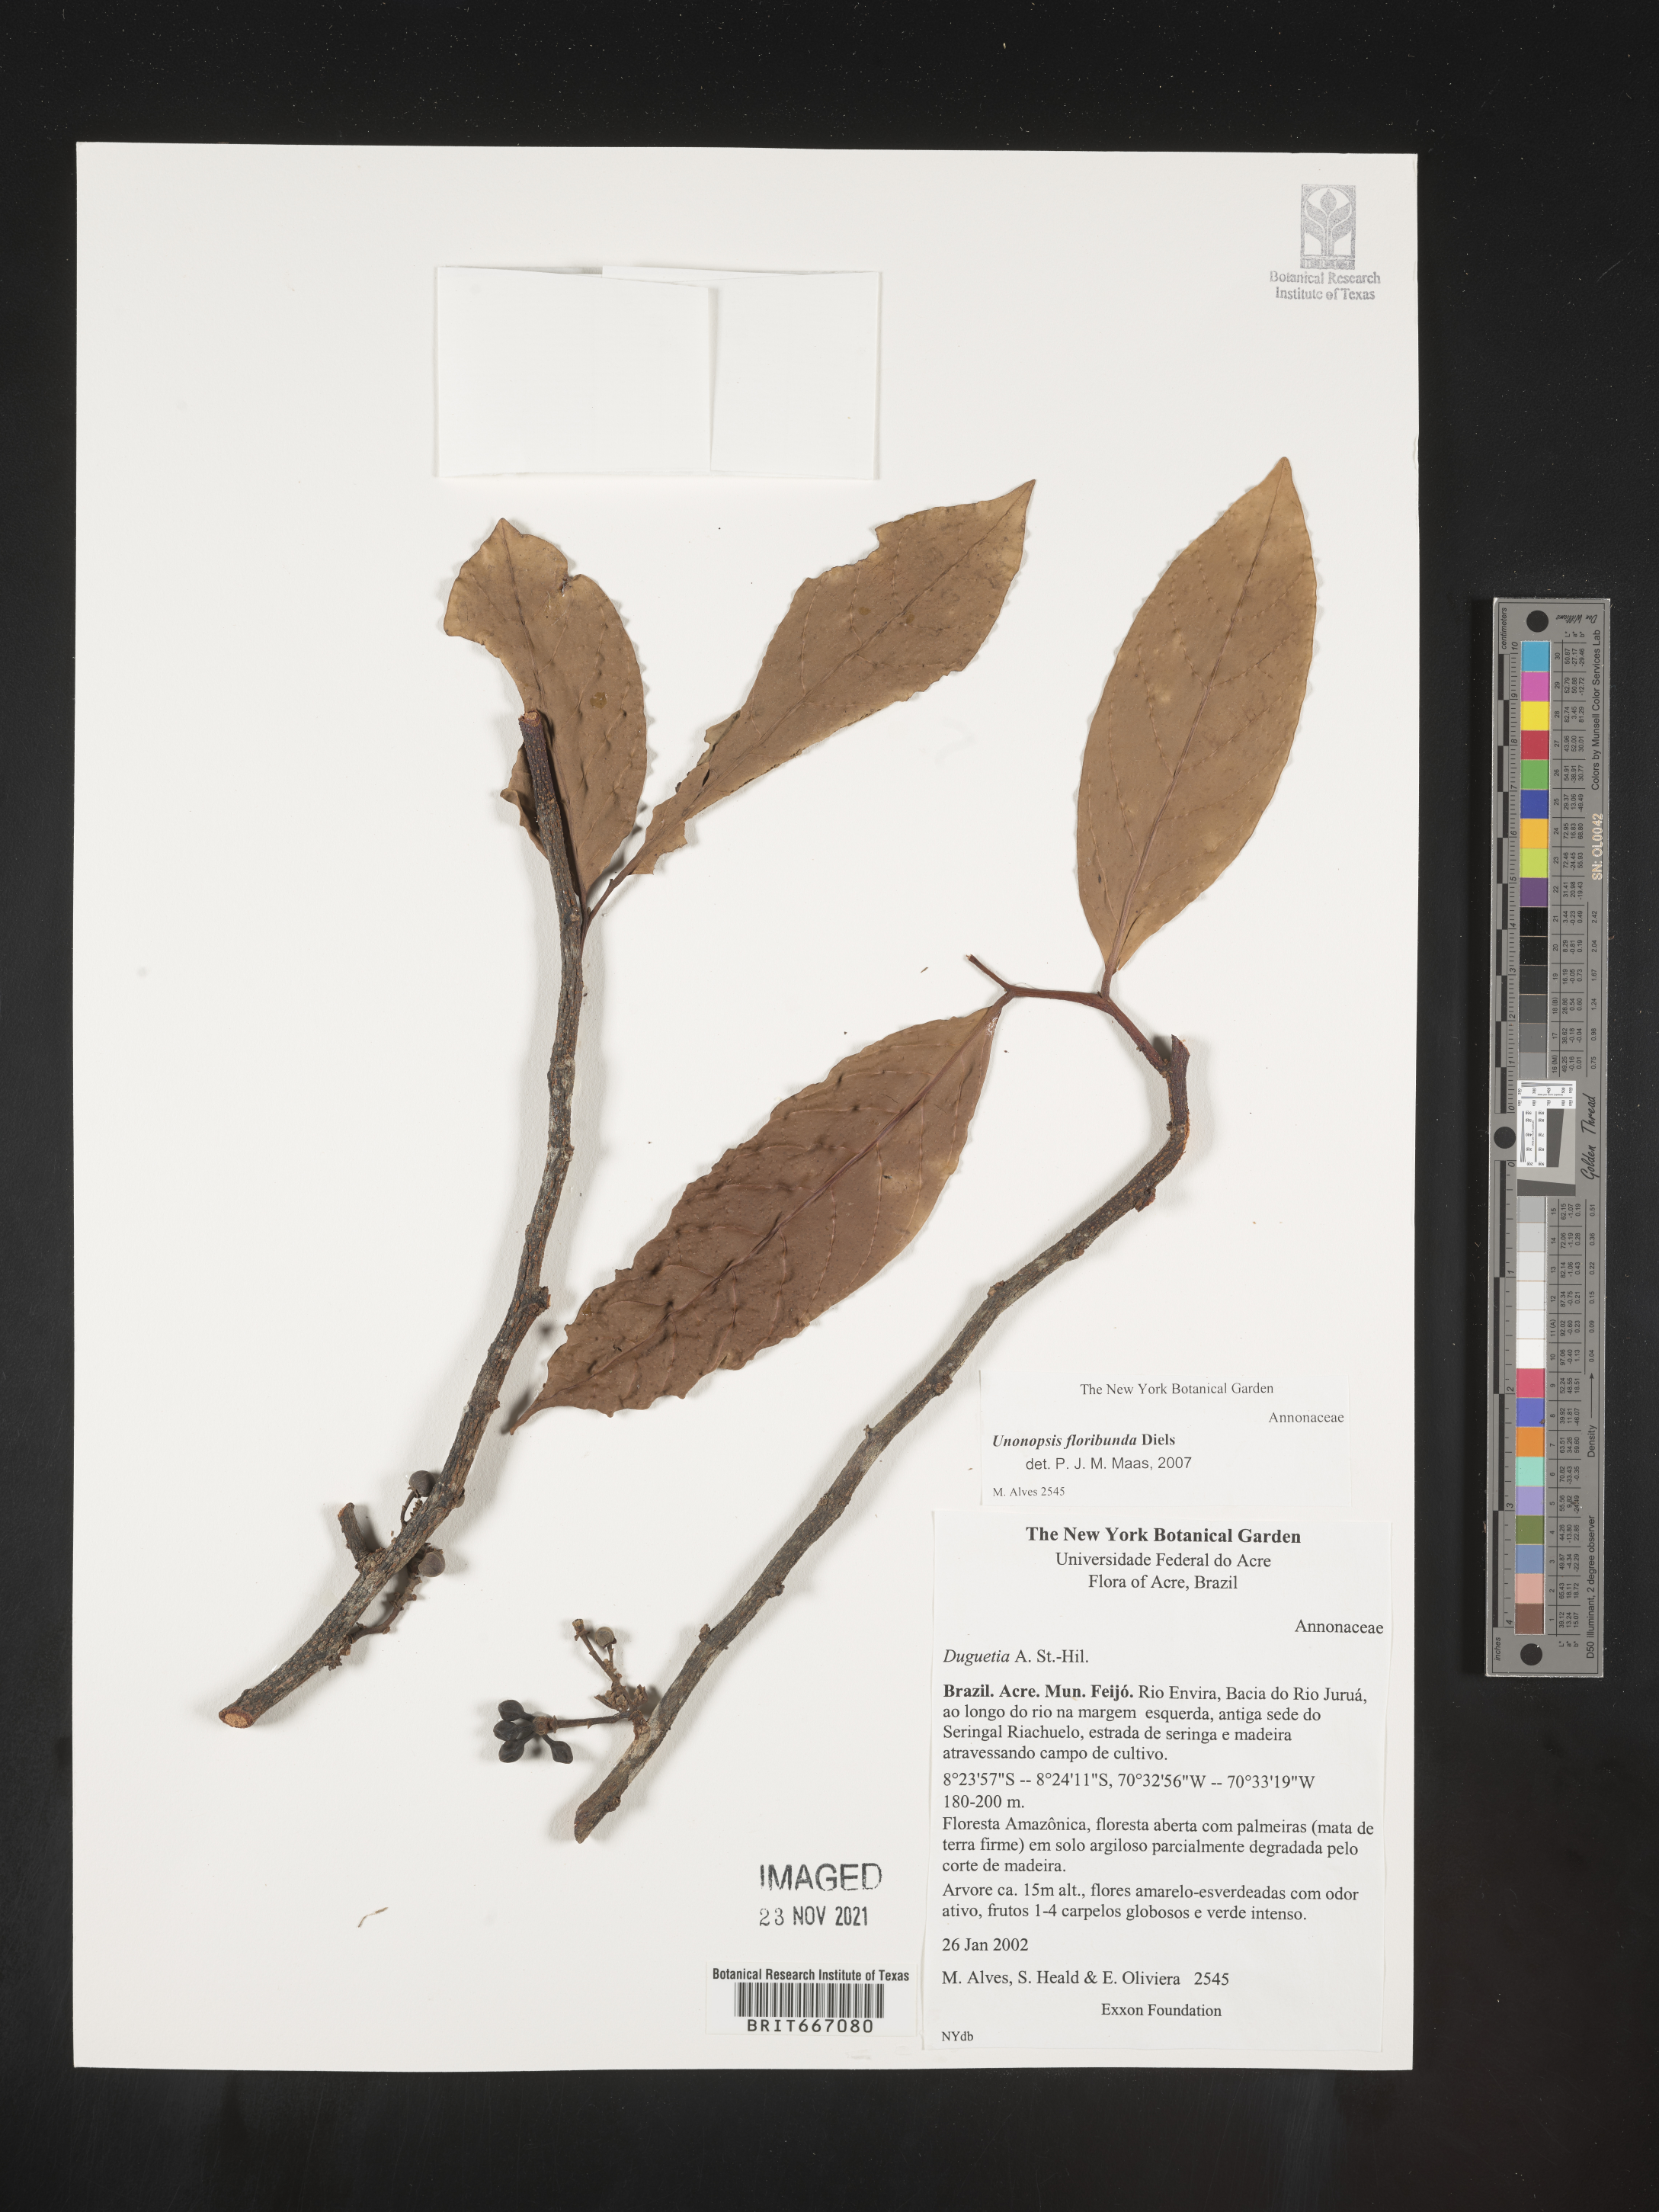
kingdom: Plantae
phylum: Tracheophyta
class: Magnoliopsida
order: Magnoliales
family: Annonaceae
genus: Unonopsis
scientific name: Unonopsis
